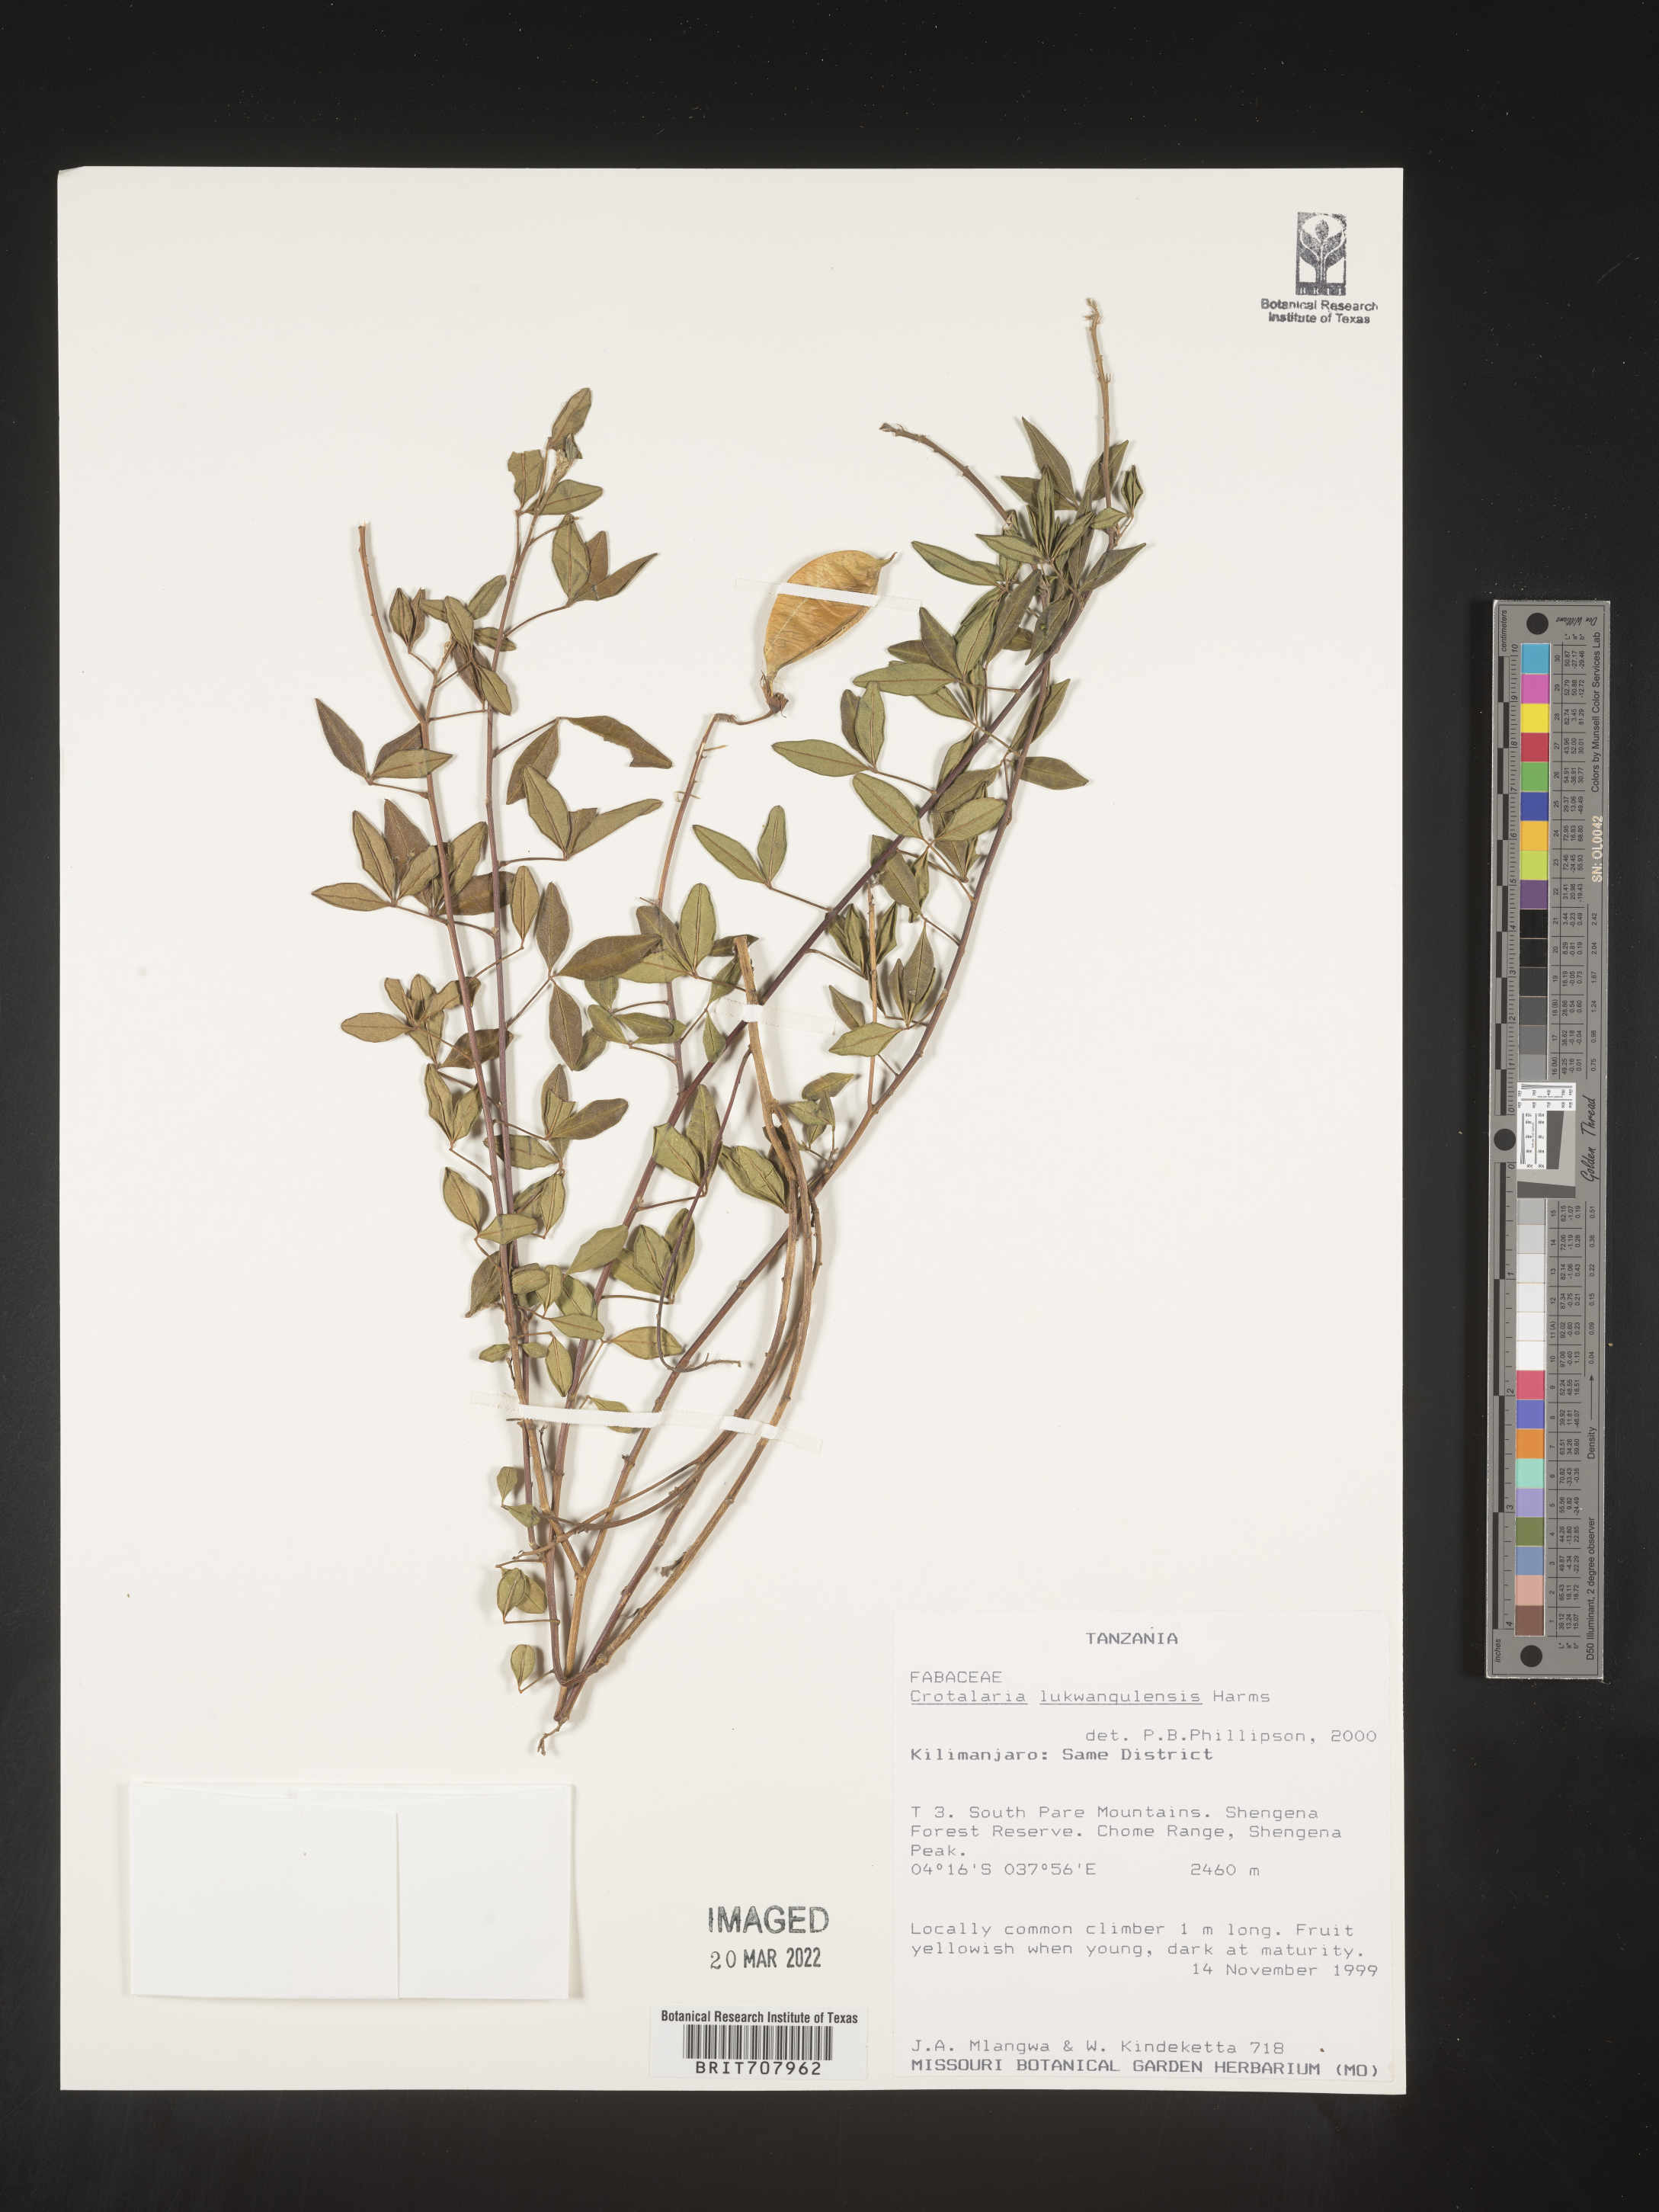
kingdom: Plantae
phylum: Tracheophyta
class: Magnoliopsida
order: Fabales
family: Fabaceae
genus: Crotalaria
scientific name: Crotalaria
